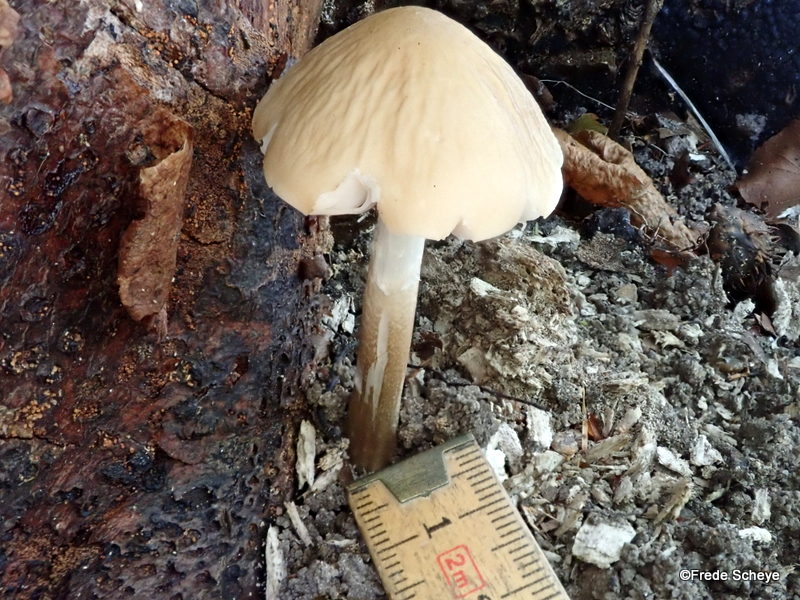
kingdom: Fungi
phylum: Basidiomycota
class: Agaricomycetes
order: Agaricales
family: Physalacriaceae
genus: Hymenopellis
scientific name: Hymenopellis radicata
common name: almindelig pælerodshat
